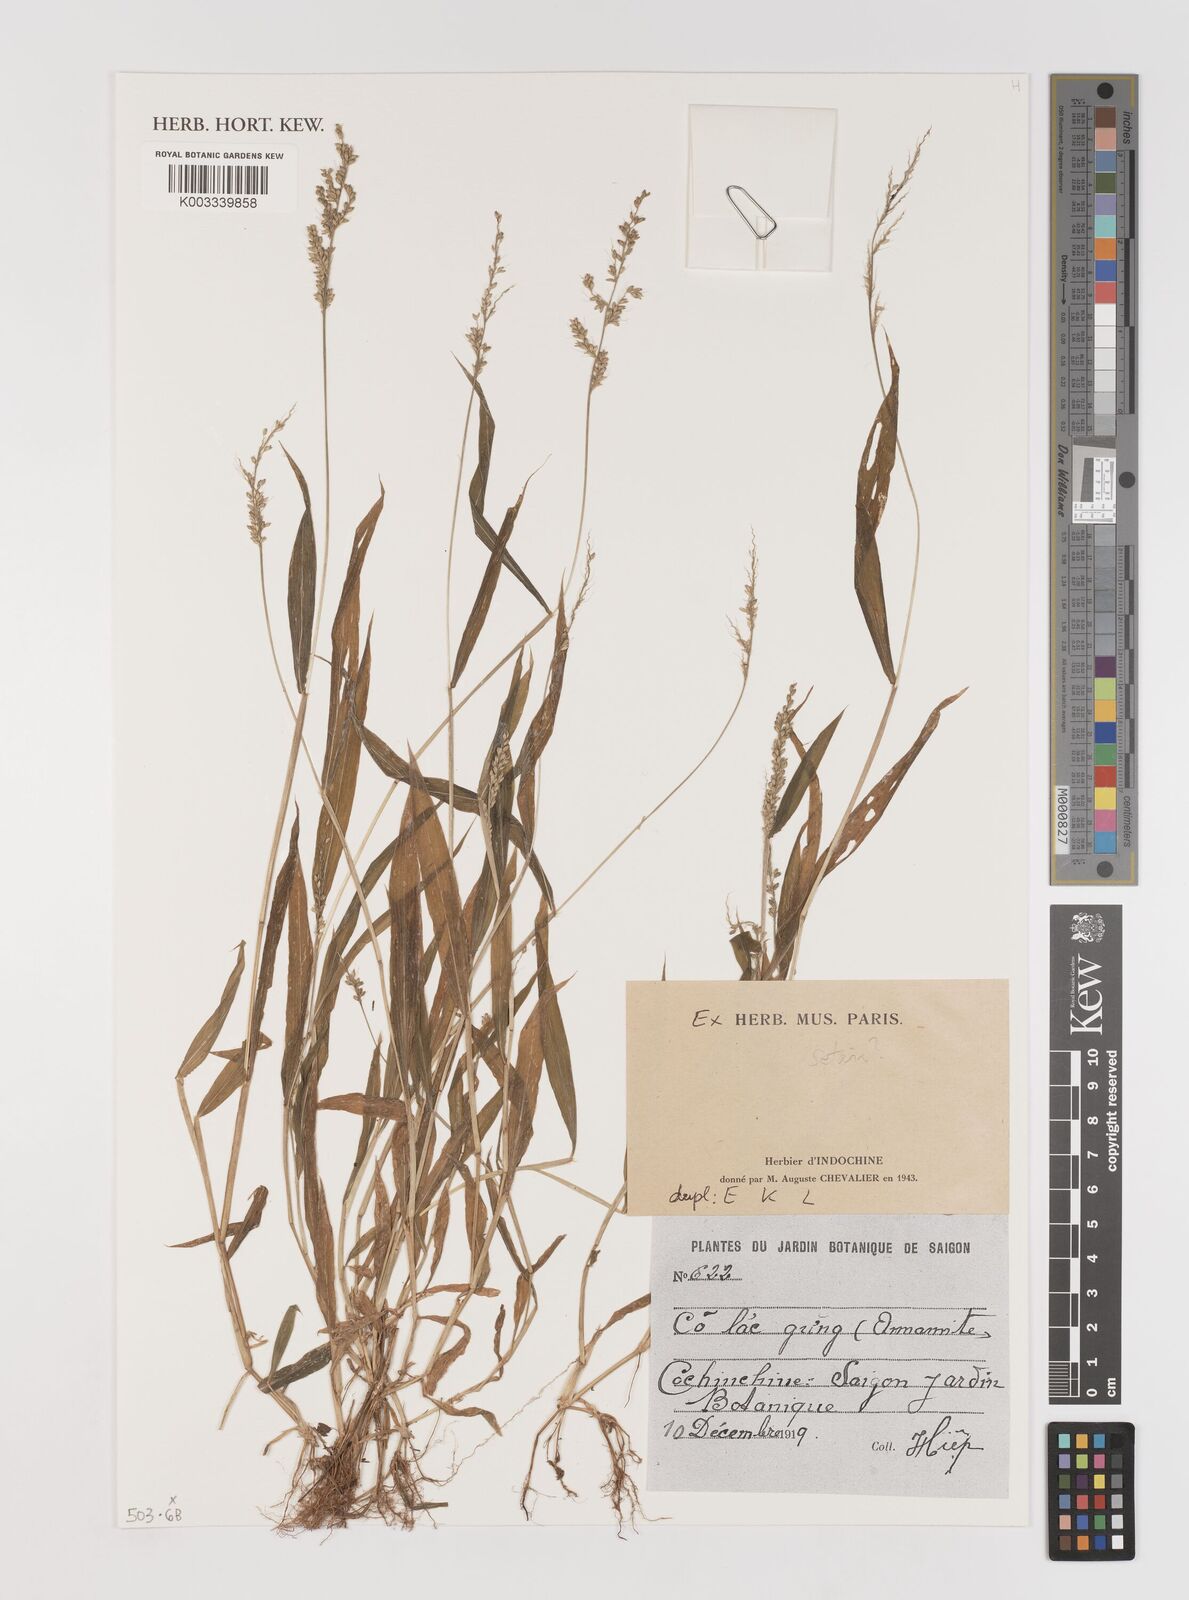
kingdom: Plantae
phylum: Tracheophyta
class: Liliopsida
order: Poales
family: Poaceae
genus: Setaria
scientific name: Setaria
